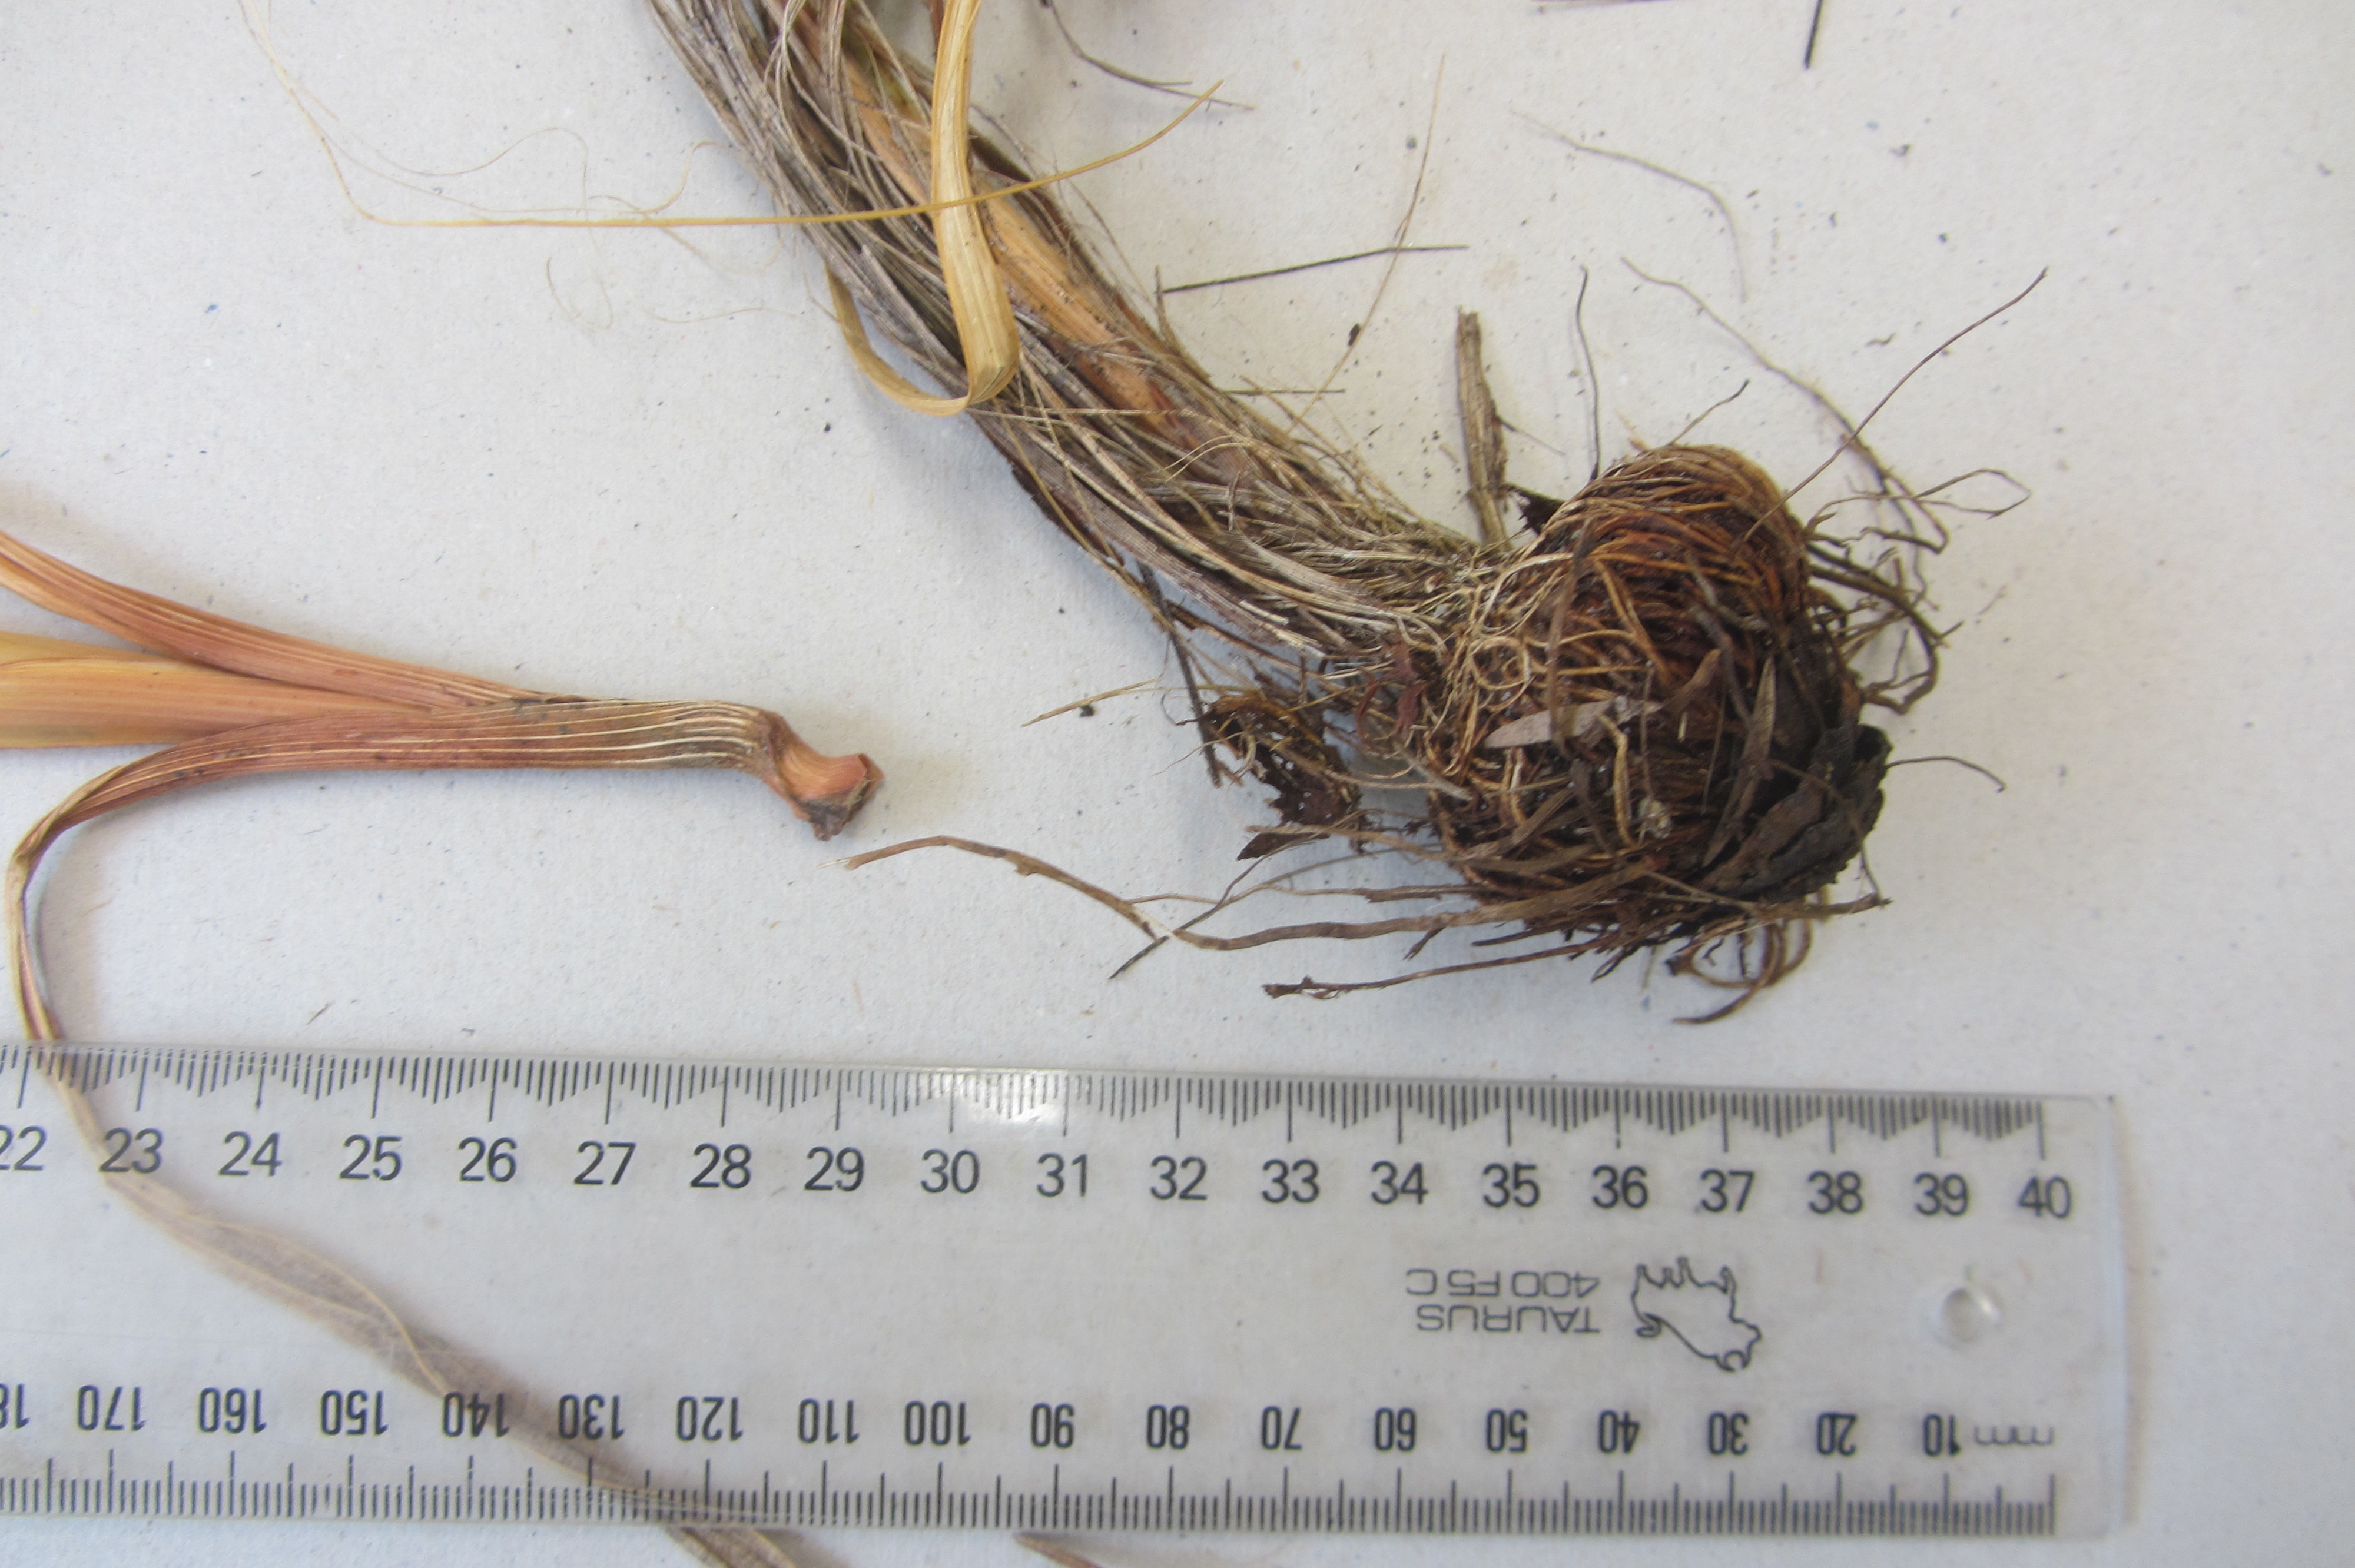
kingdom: Plantae
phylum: Tracheophyta
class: Liliopsida
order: Asparagales
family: Iridaceae
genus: Watsonia
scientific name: Watsonia meriana
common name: Bulbil bugle-lily
